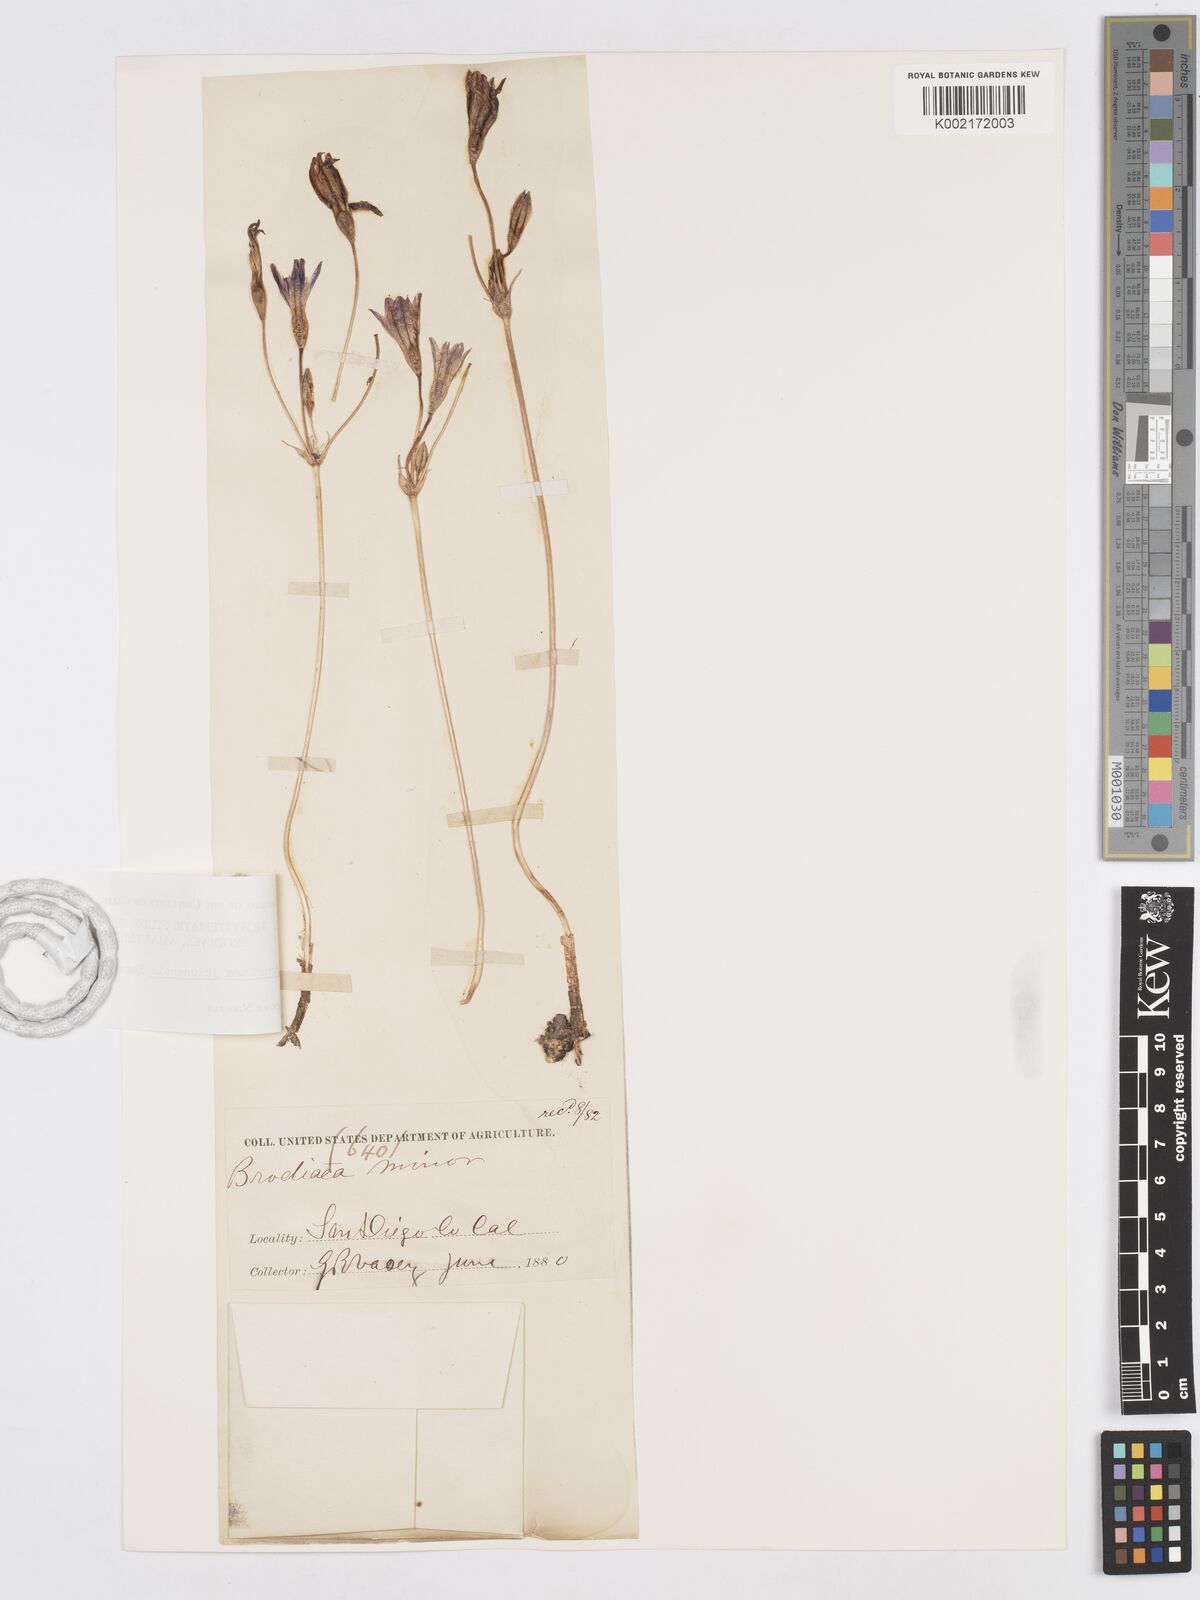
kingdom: Plantae
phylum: Tracheophyta
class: Liliopsida
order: Asparagales
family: Asparagaceae
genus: Brodiaea
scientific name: Brodiaea jolonensis
